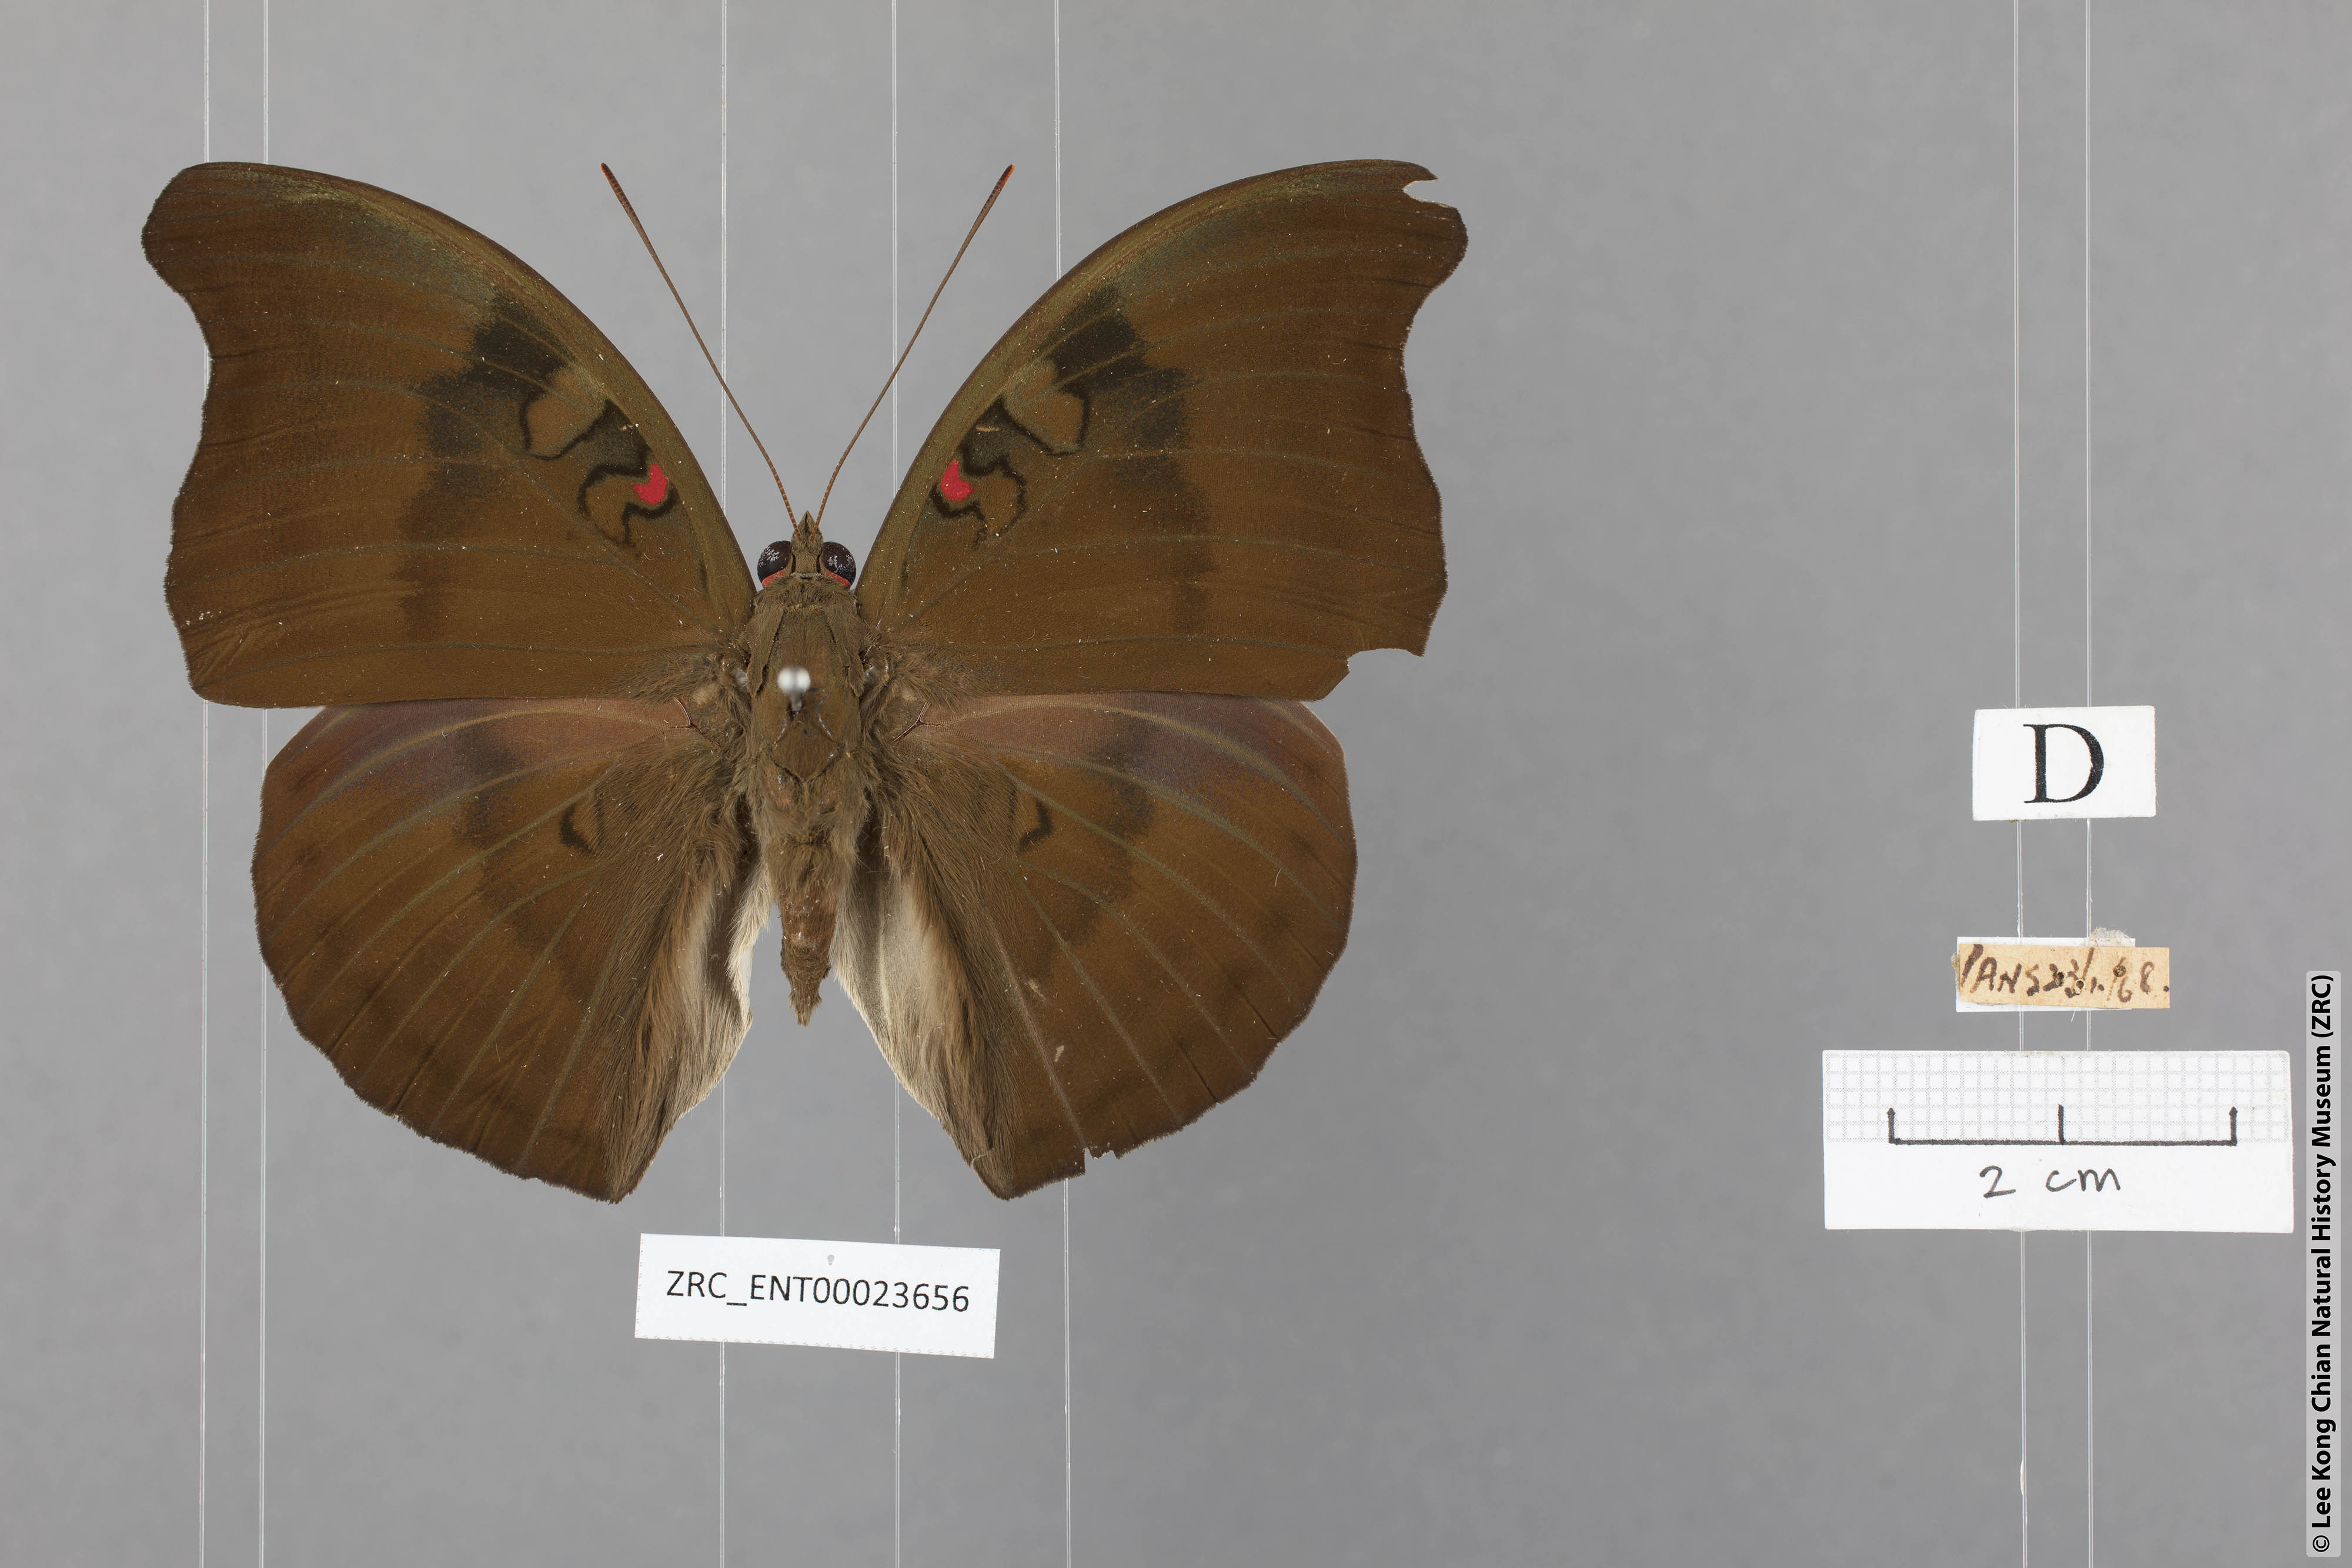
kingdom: Animalia
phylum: Arthropoda
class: Insecta
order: Lepidoptera
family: Nymphalidae
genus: Euthalia
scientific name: Euthalia Dophla evelina
